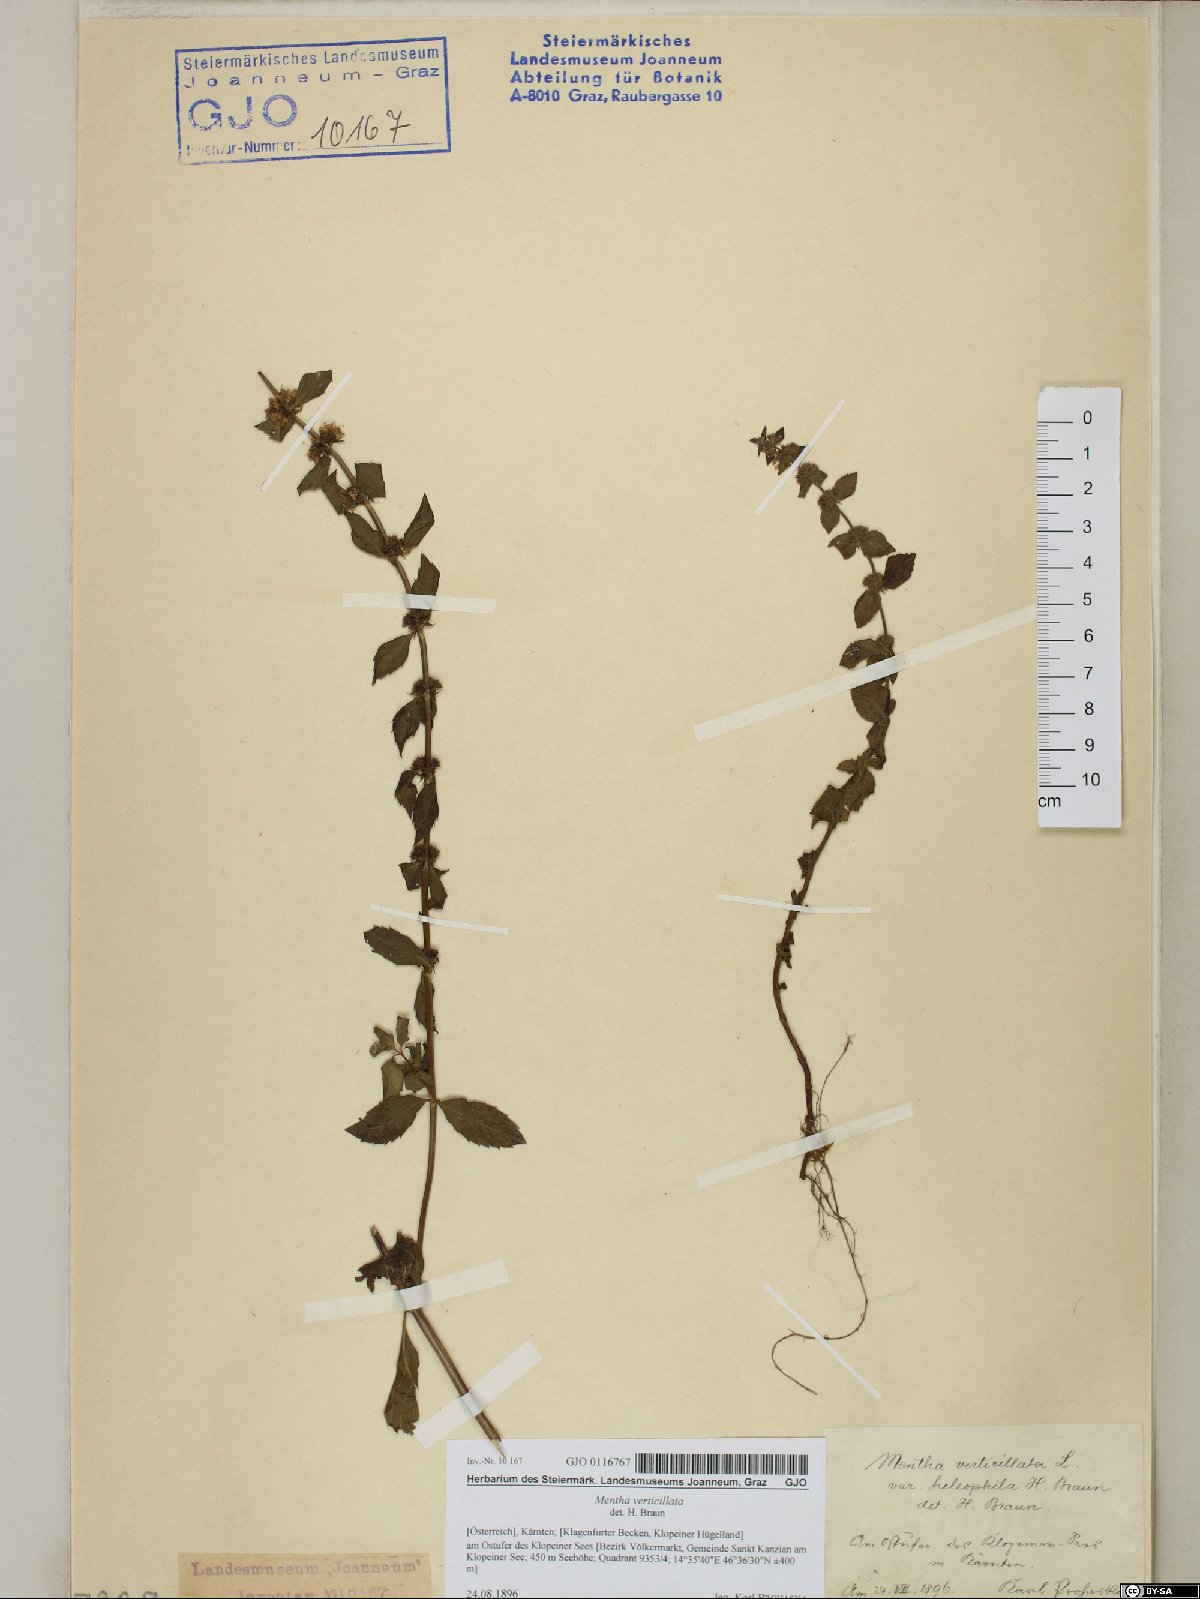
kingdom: Plantae
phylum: Tracheophyta
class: Magnoliopsida
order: Lamiales
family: Lamiaceae
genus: Mentha
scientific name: Mentha verticillata
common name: Mint
